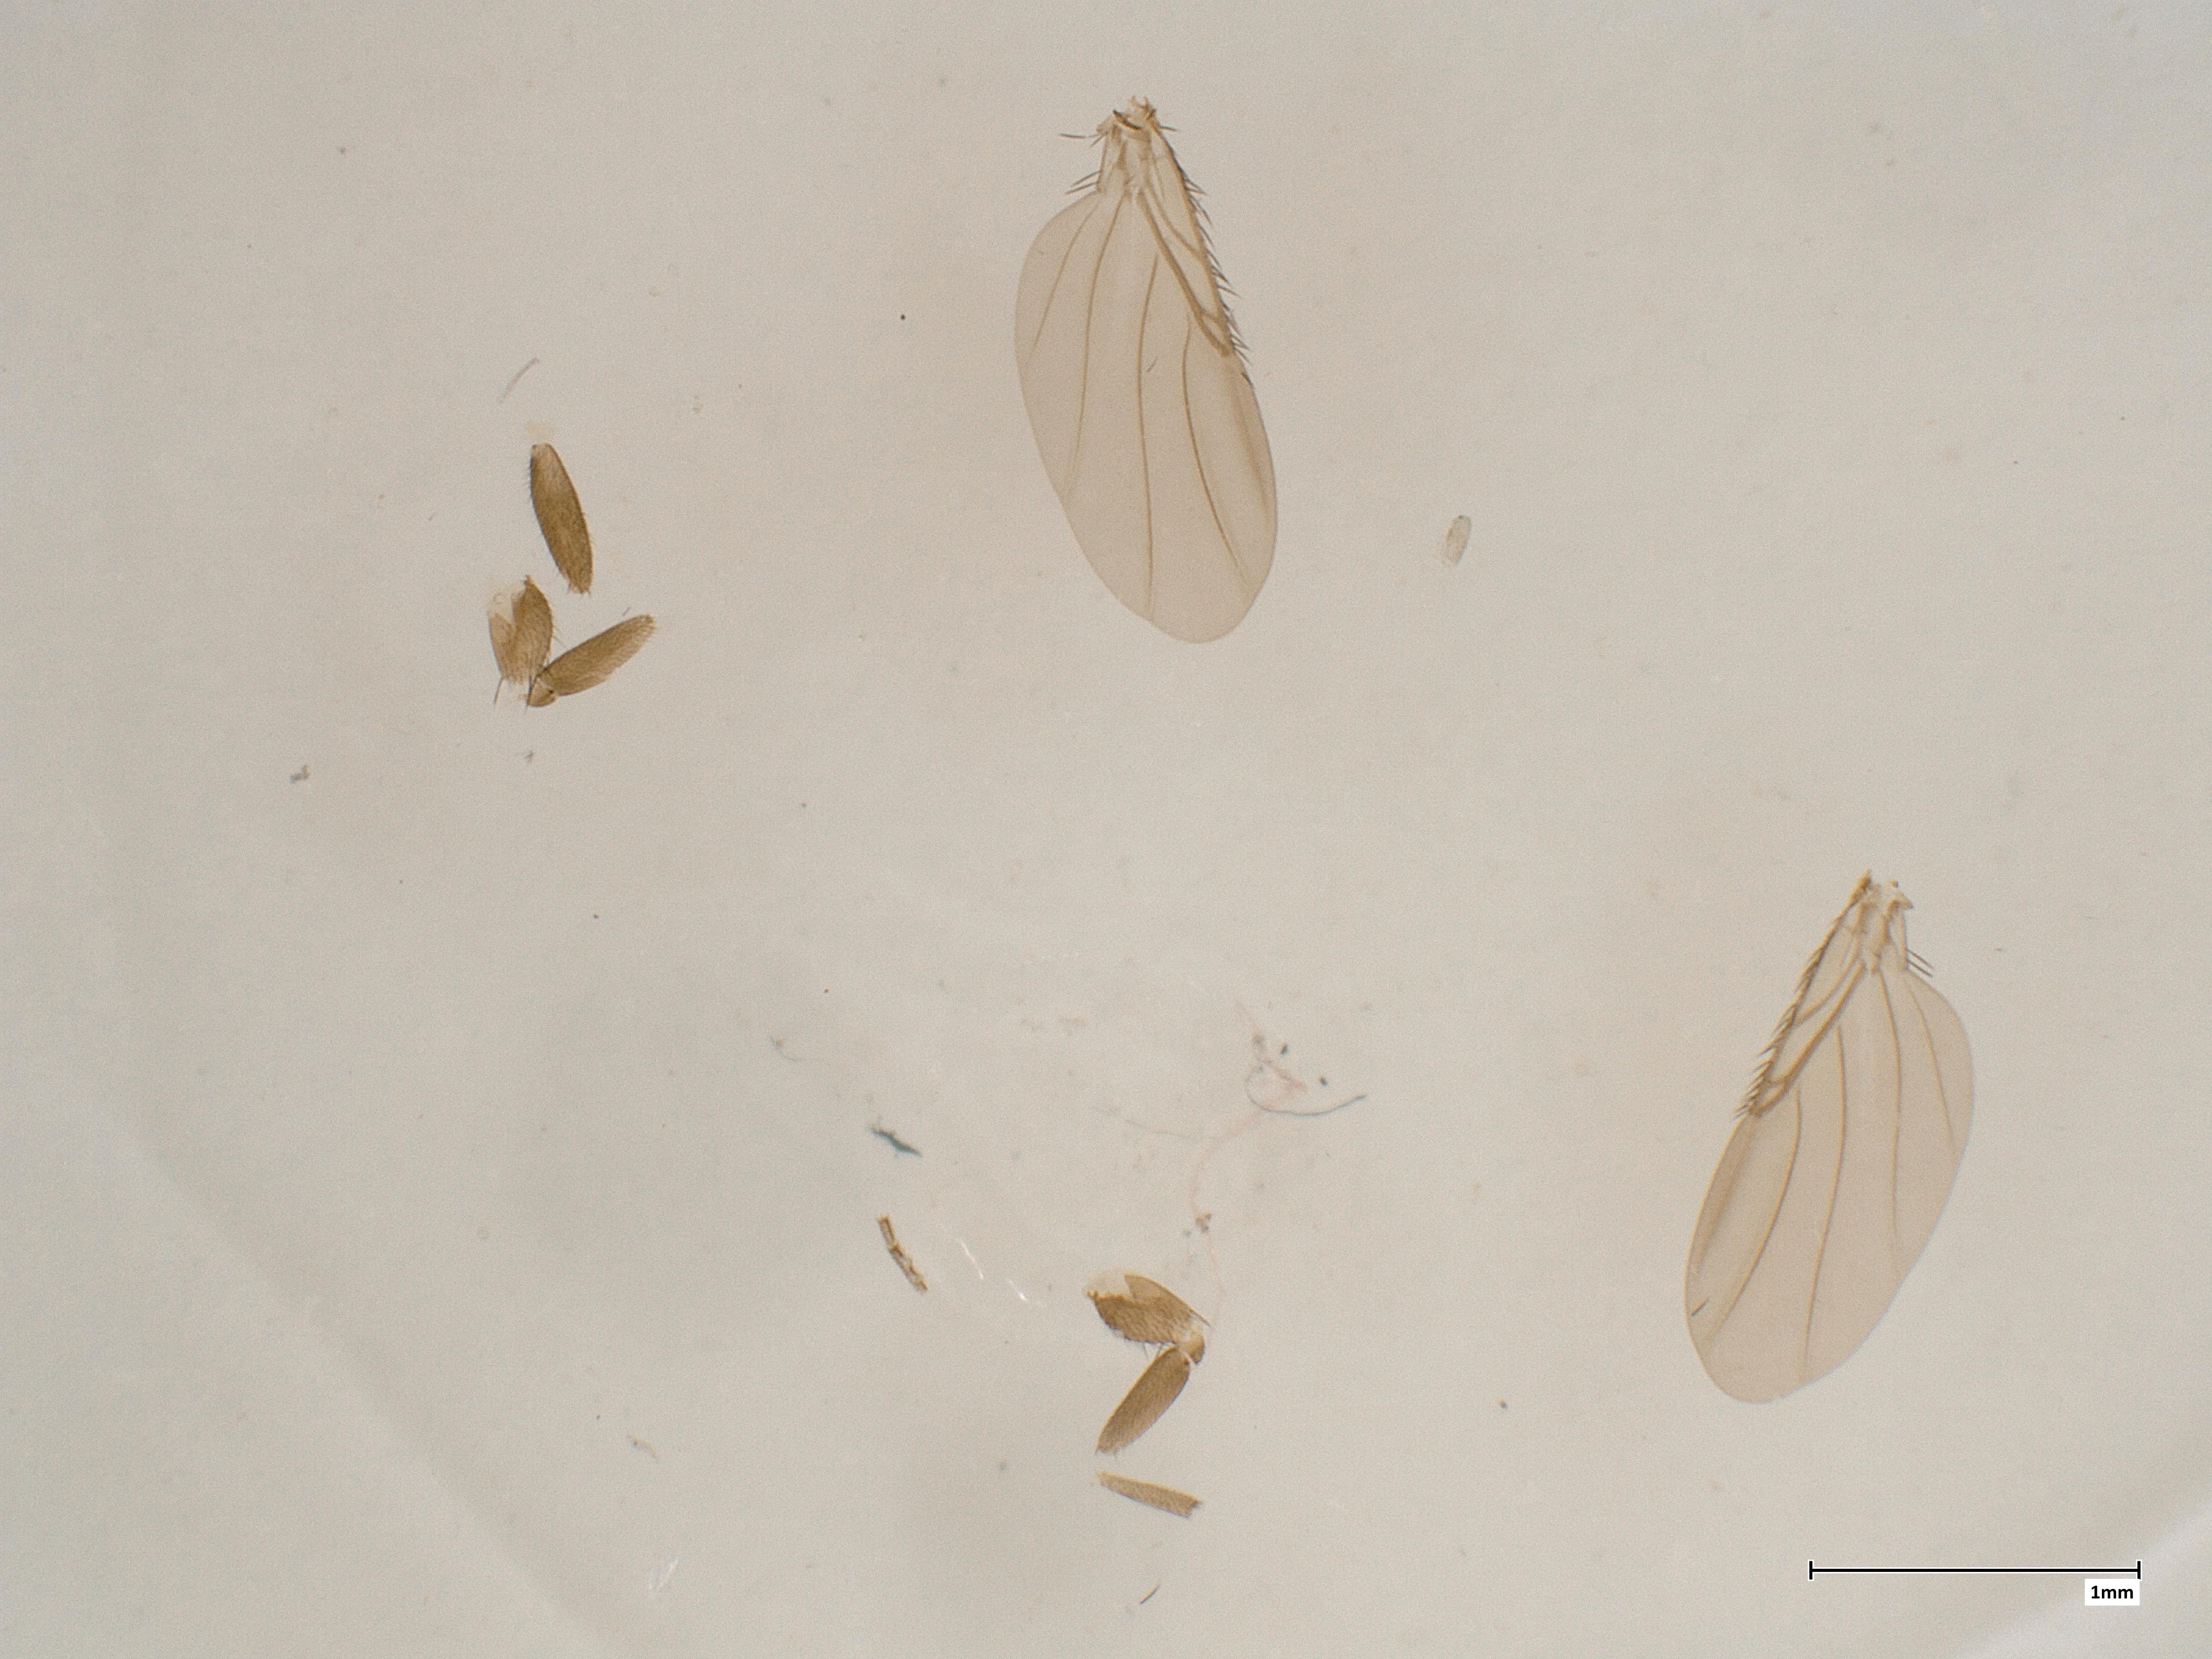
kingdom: Animalia
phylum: Arthropoda
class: Insecta
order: Diptera
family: Phoridae
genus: Megaselia
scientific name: Megaselia spinigera
